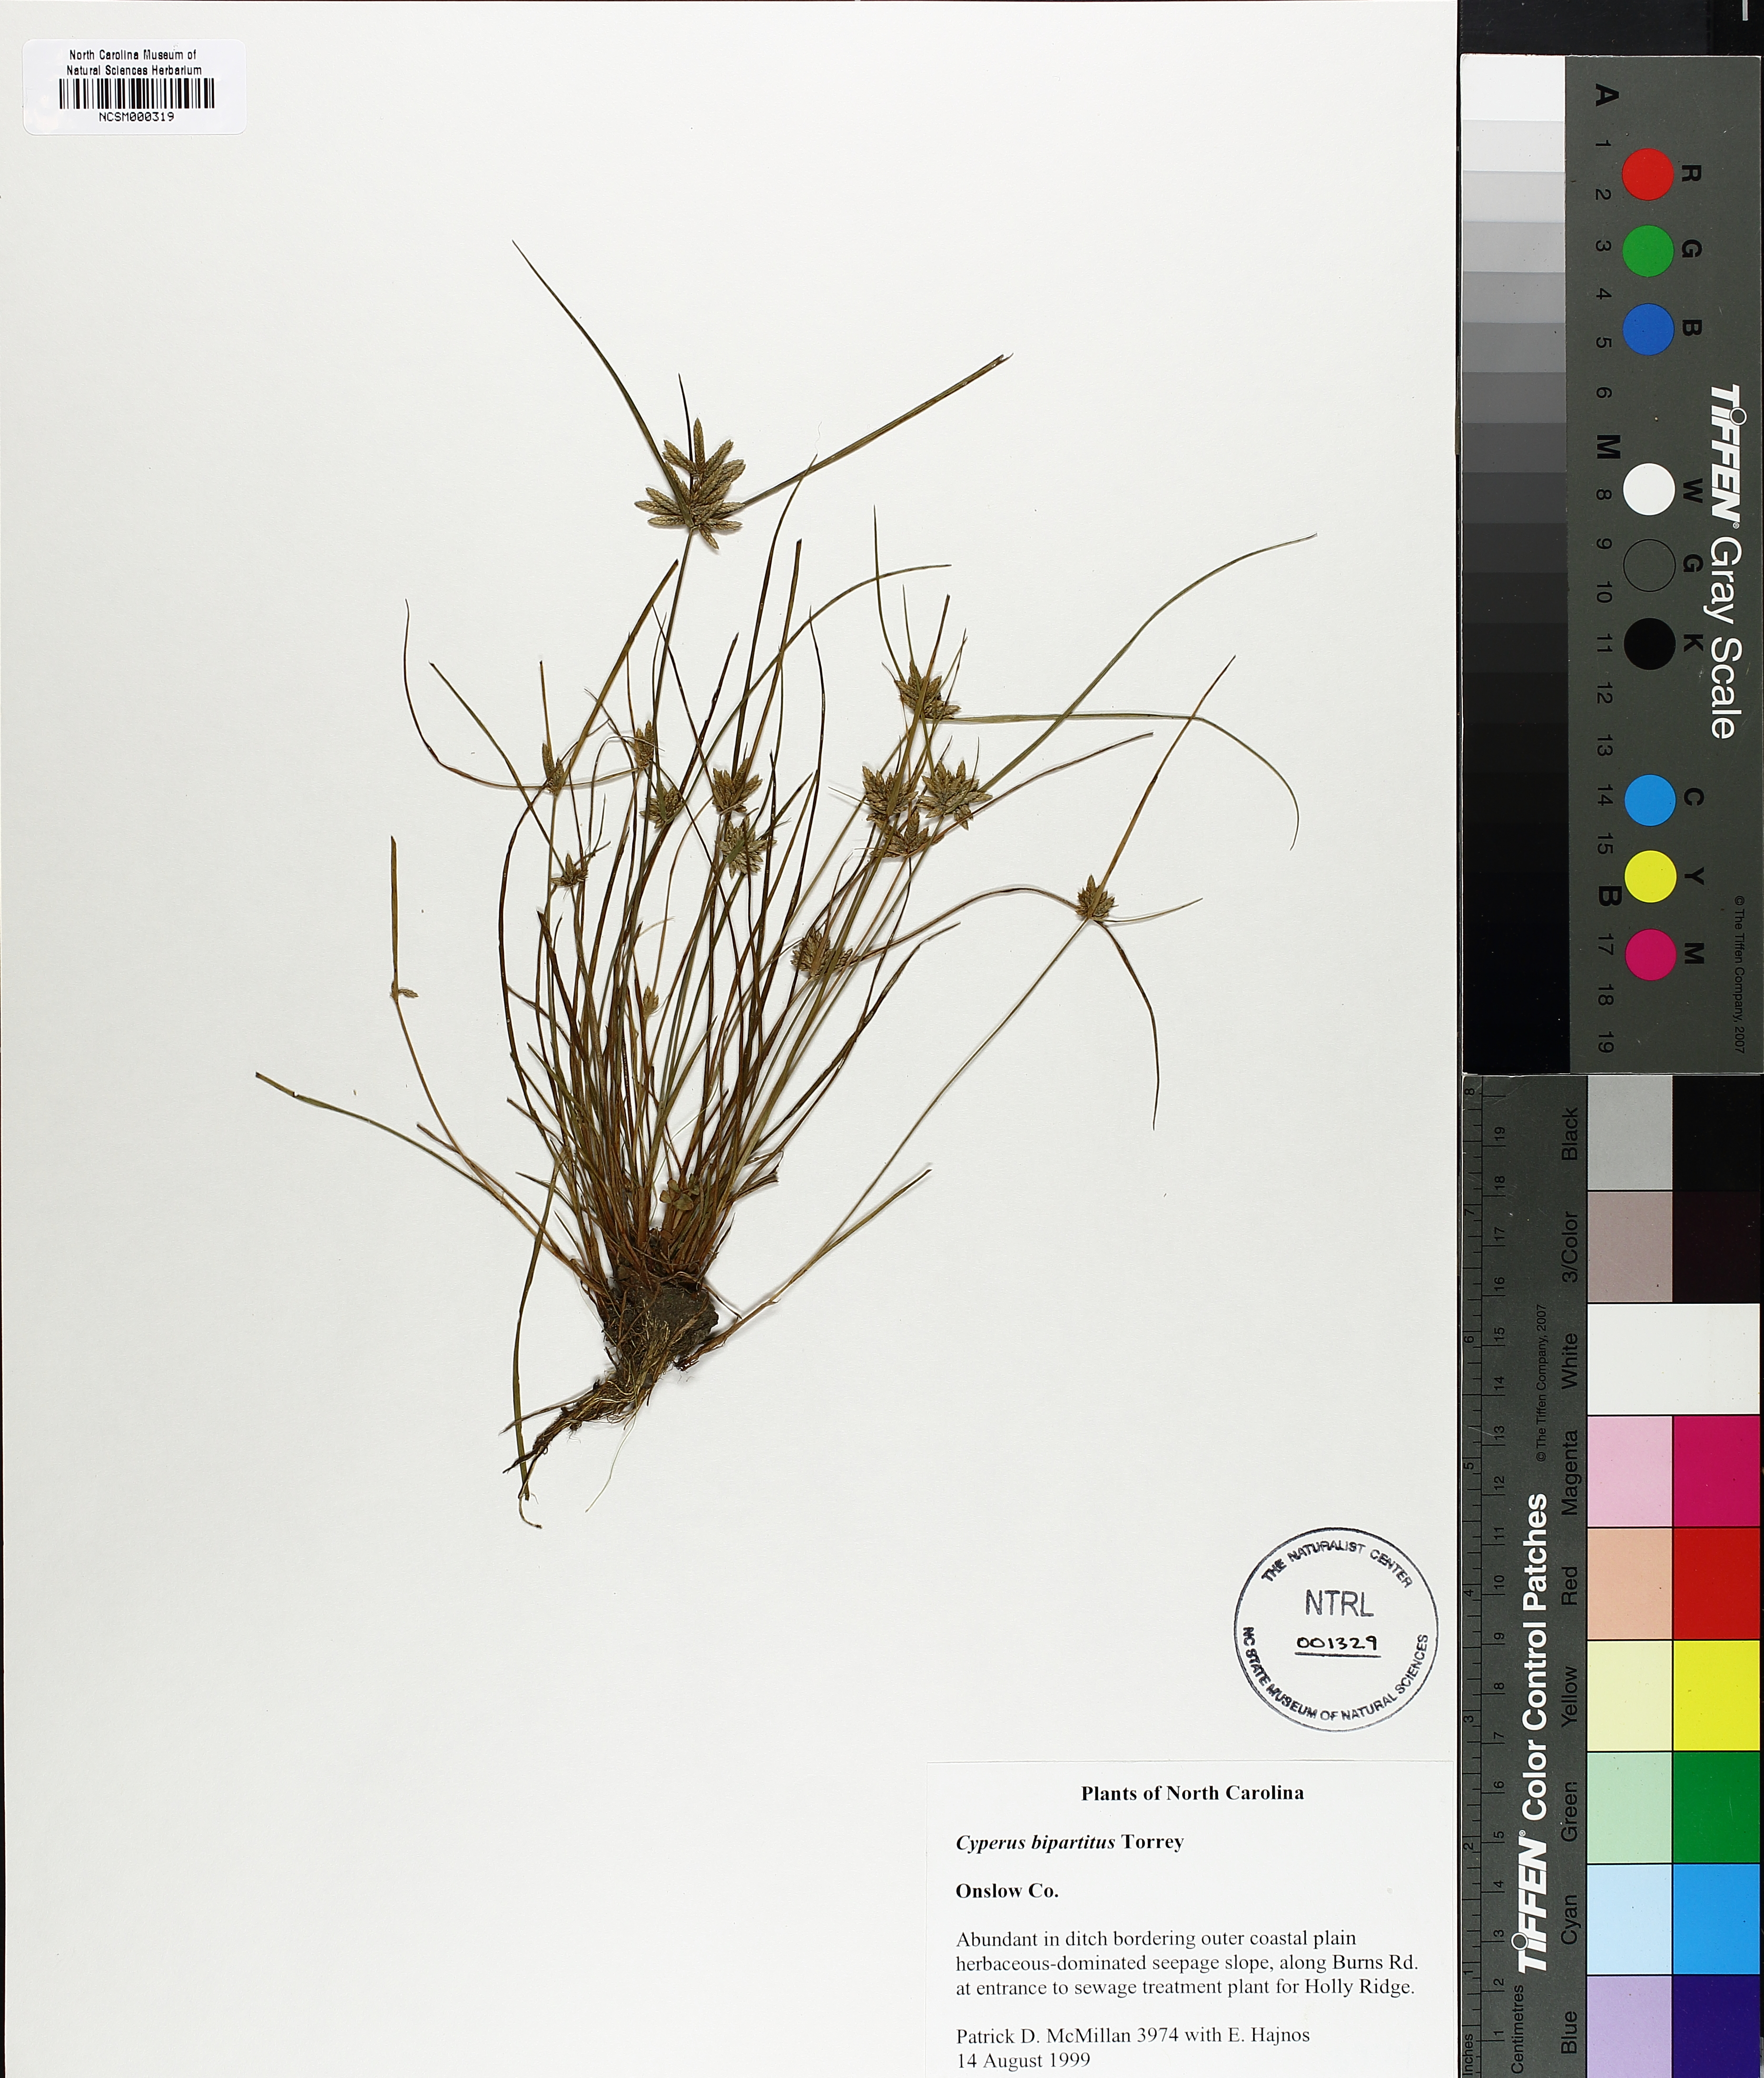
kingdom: Plantae
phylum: Tracheophyta
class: Liliopsida
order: Poales
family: Cyperaceae
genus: Cyperus
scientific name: Cyperus bipartitus
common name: Brook flatsedge
